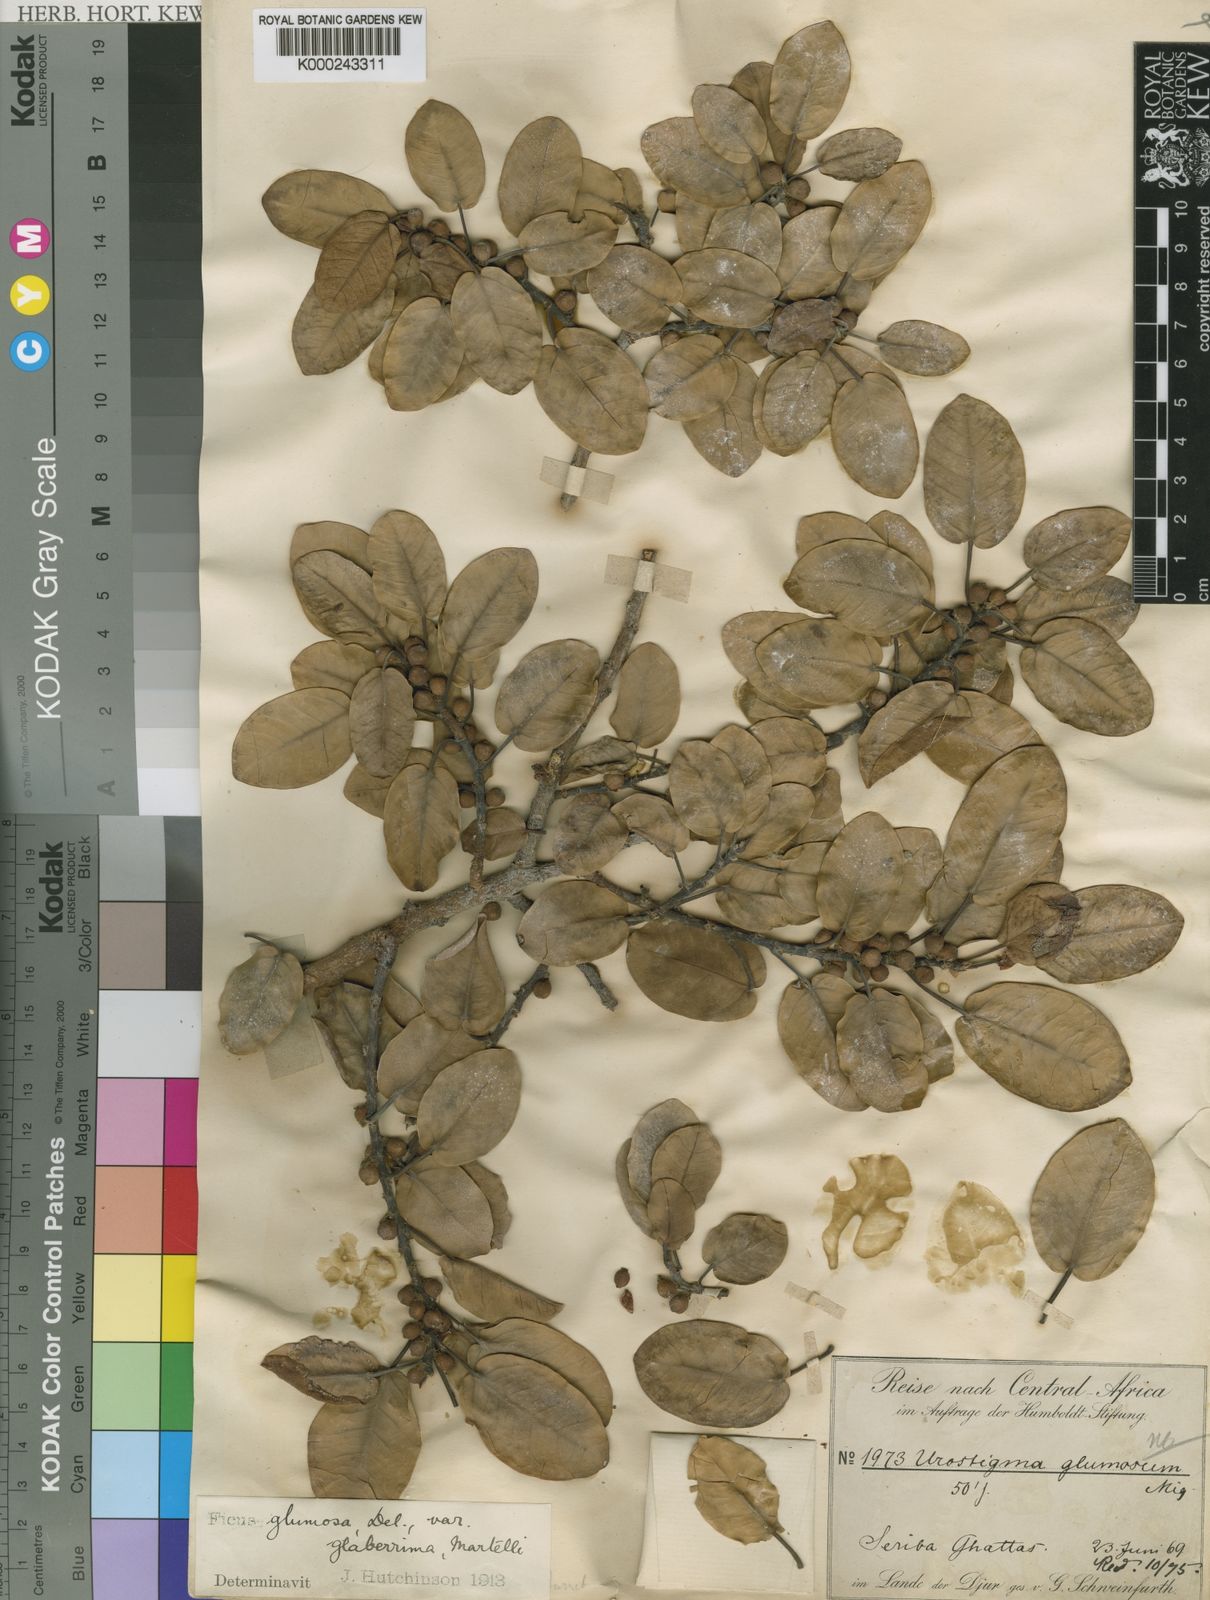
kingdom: Plantae
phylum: Tracheophyta
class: Magnoliopsida
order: Rosales
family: Moraceae
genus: Ficus
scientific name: Ficus
